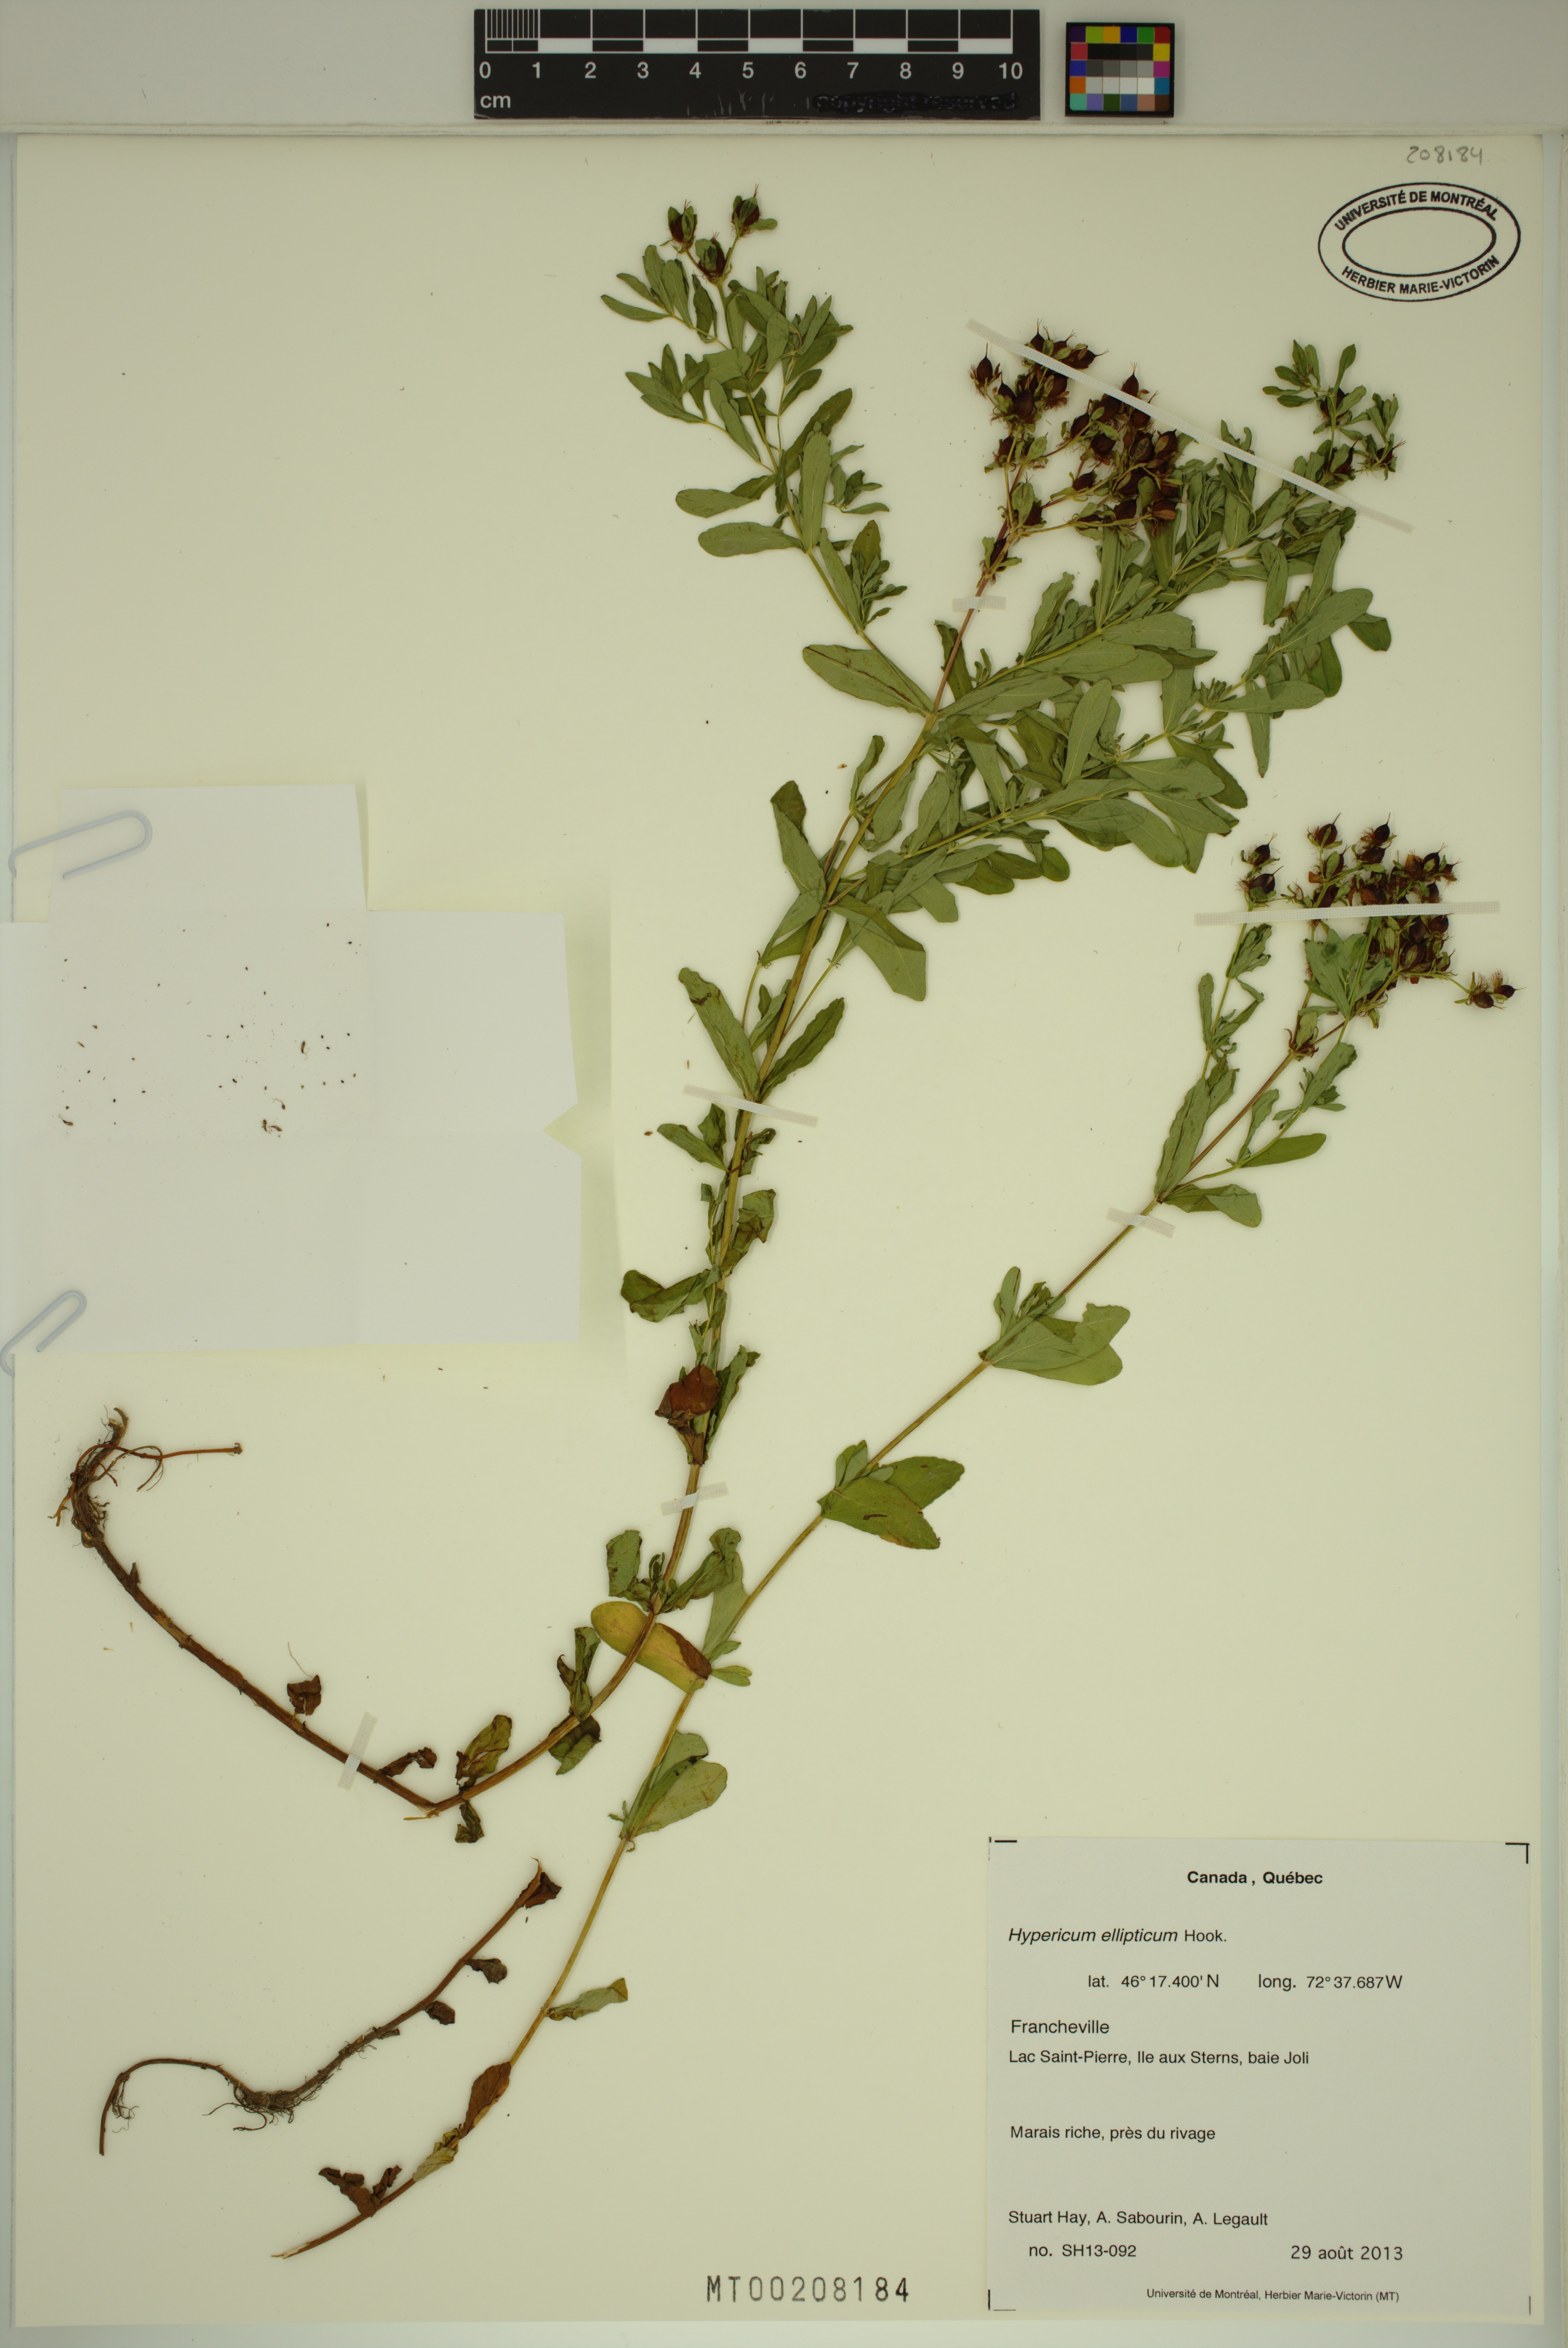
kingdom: Plantae
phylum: Tracheophyta
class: Magnoliopsida
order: Malpighiales
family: Hypericaceae
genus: Hypericum
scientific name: Hypericum ellipticum
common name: Elliptic st. john's-wort
